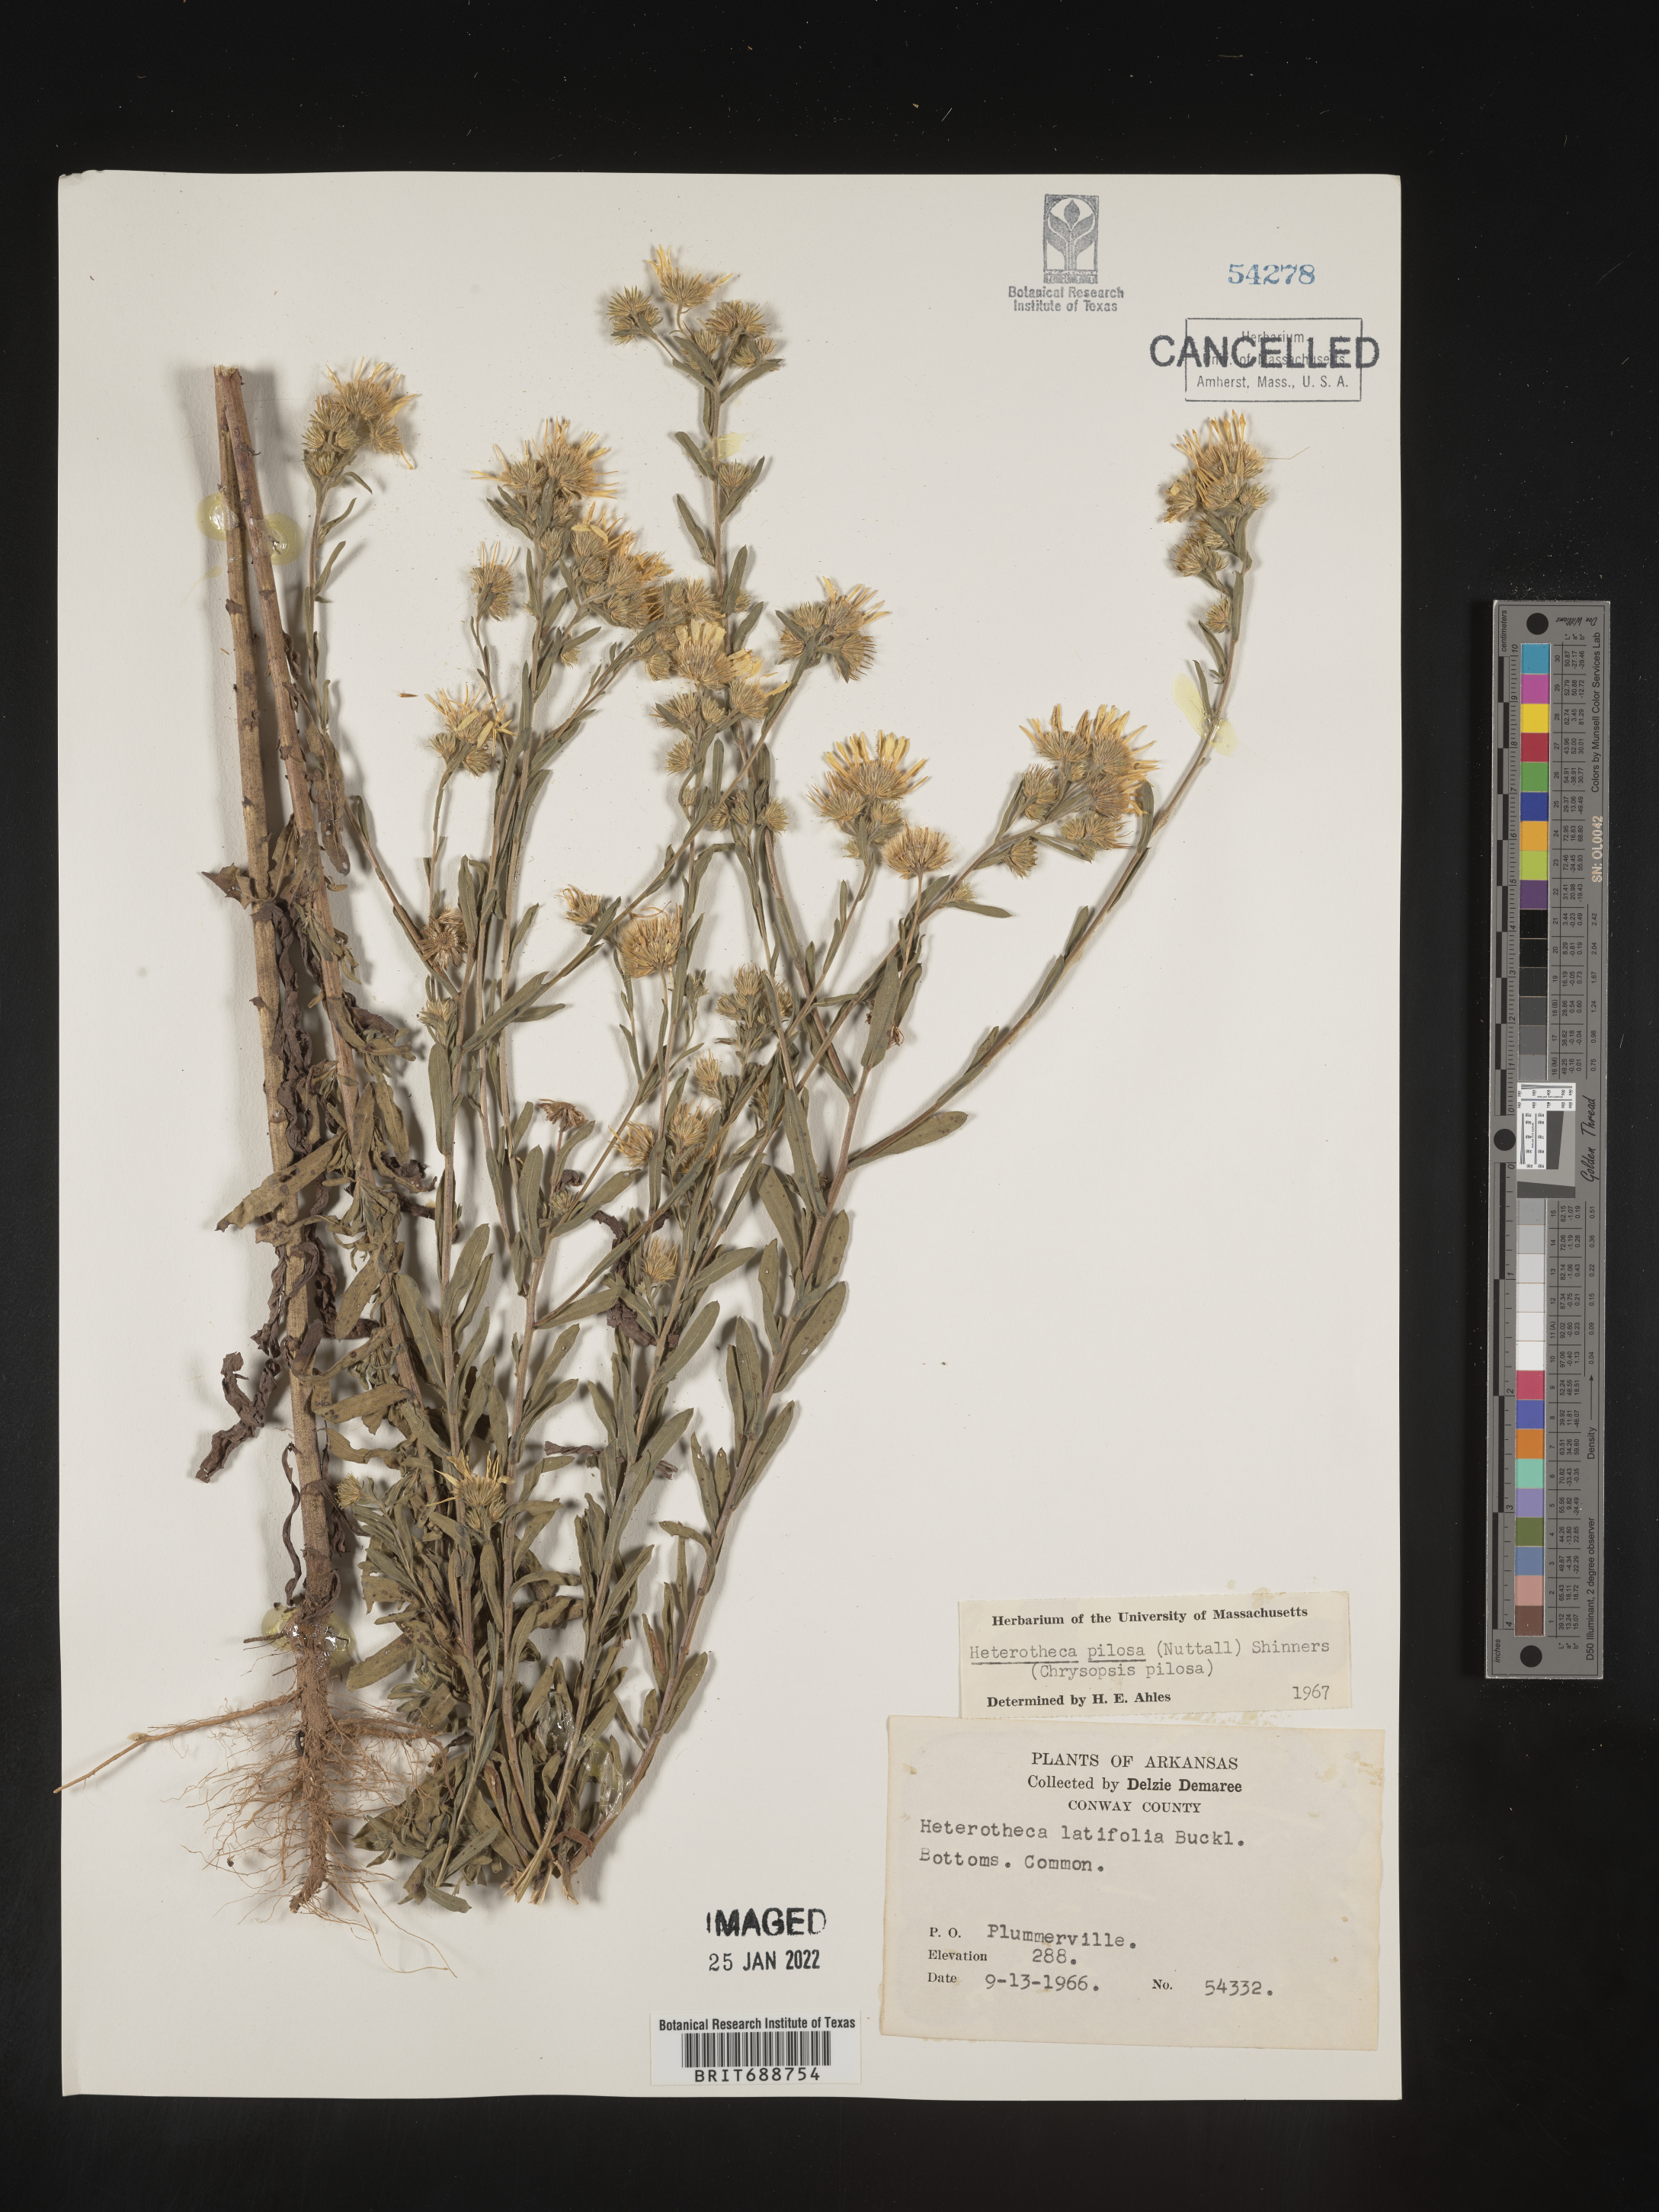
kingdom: Plantae
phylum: Tracheophyta
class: Magnoliopsida
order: Asterales
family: Asteraceae
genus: Bradburia
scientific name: Bradburia pilosa
